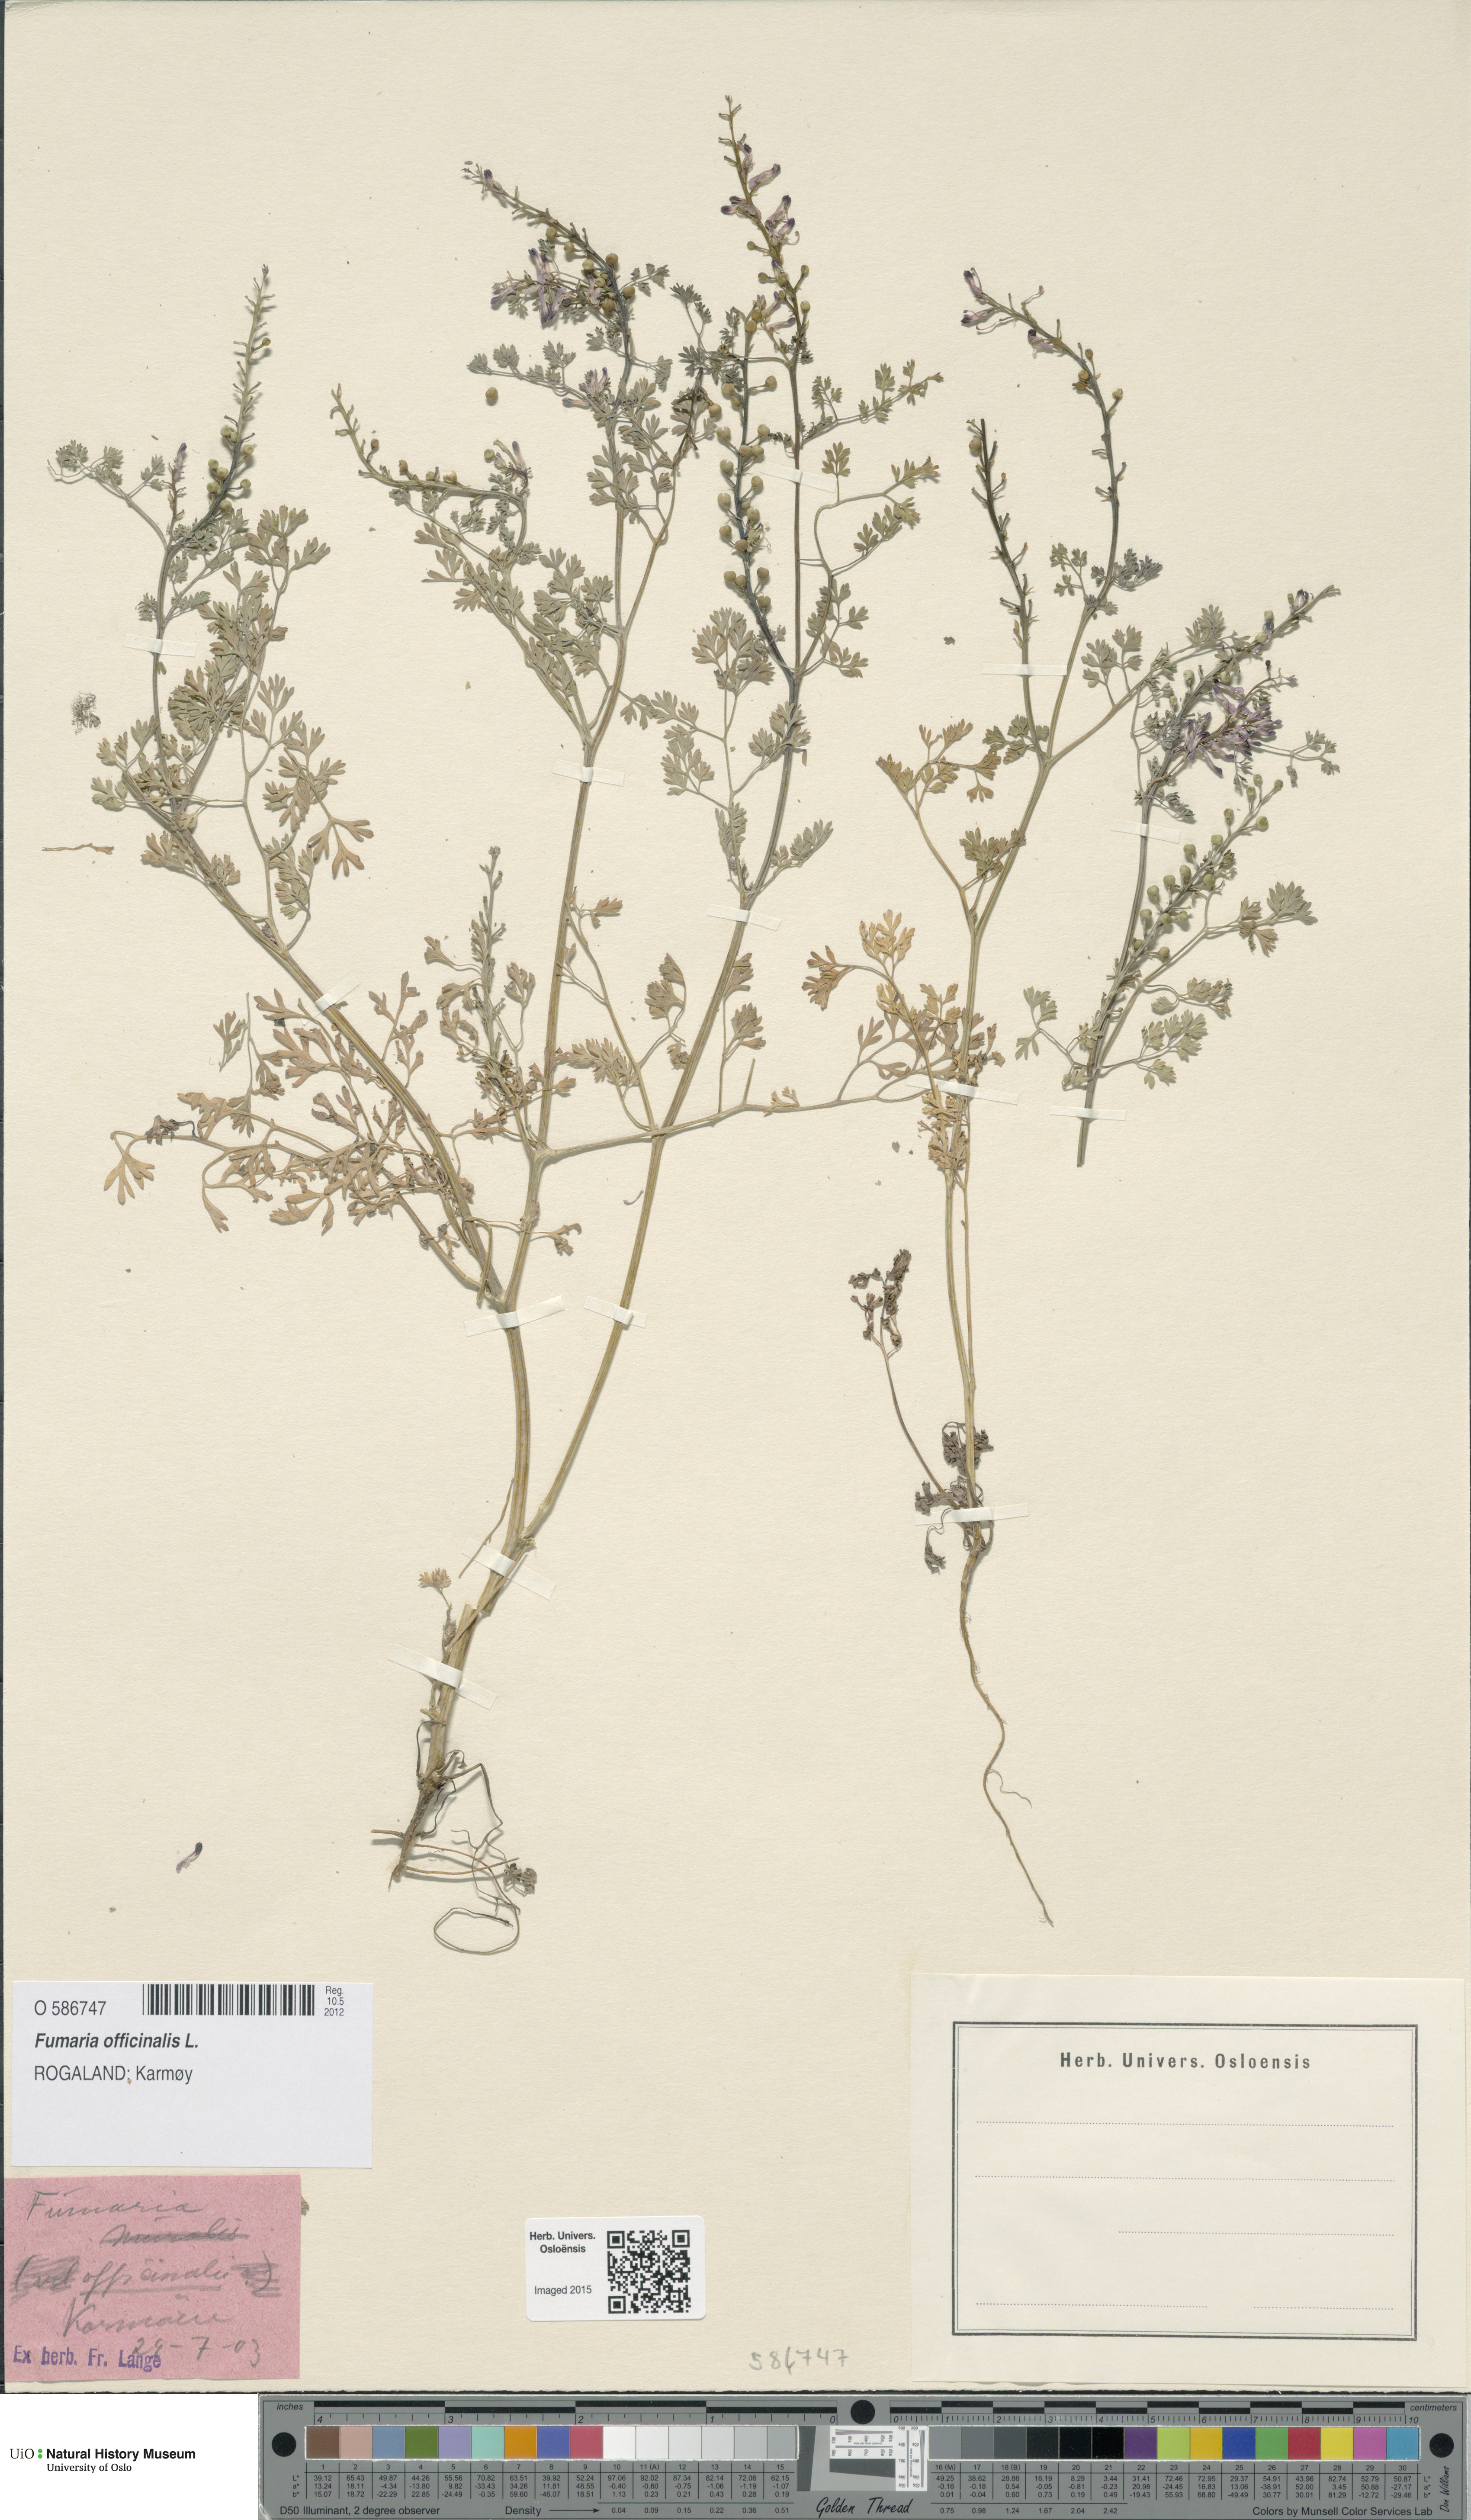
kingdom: Plantae
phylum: Tracheophyta
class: Magnoliopsida
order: Ranunculales
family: Papaveraceae
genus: Fumaria
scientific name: Fumaria officinalis
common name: Common fumitory
